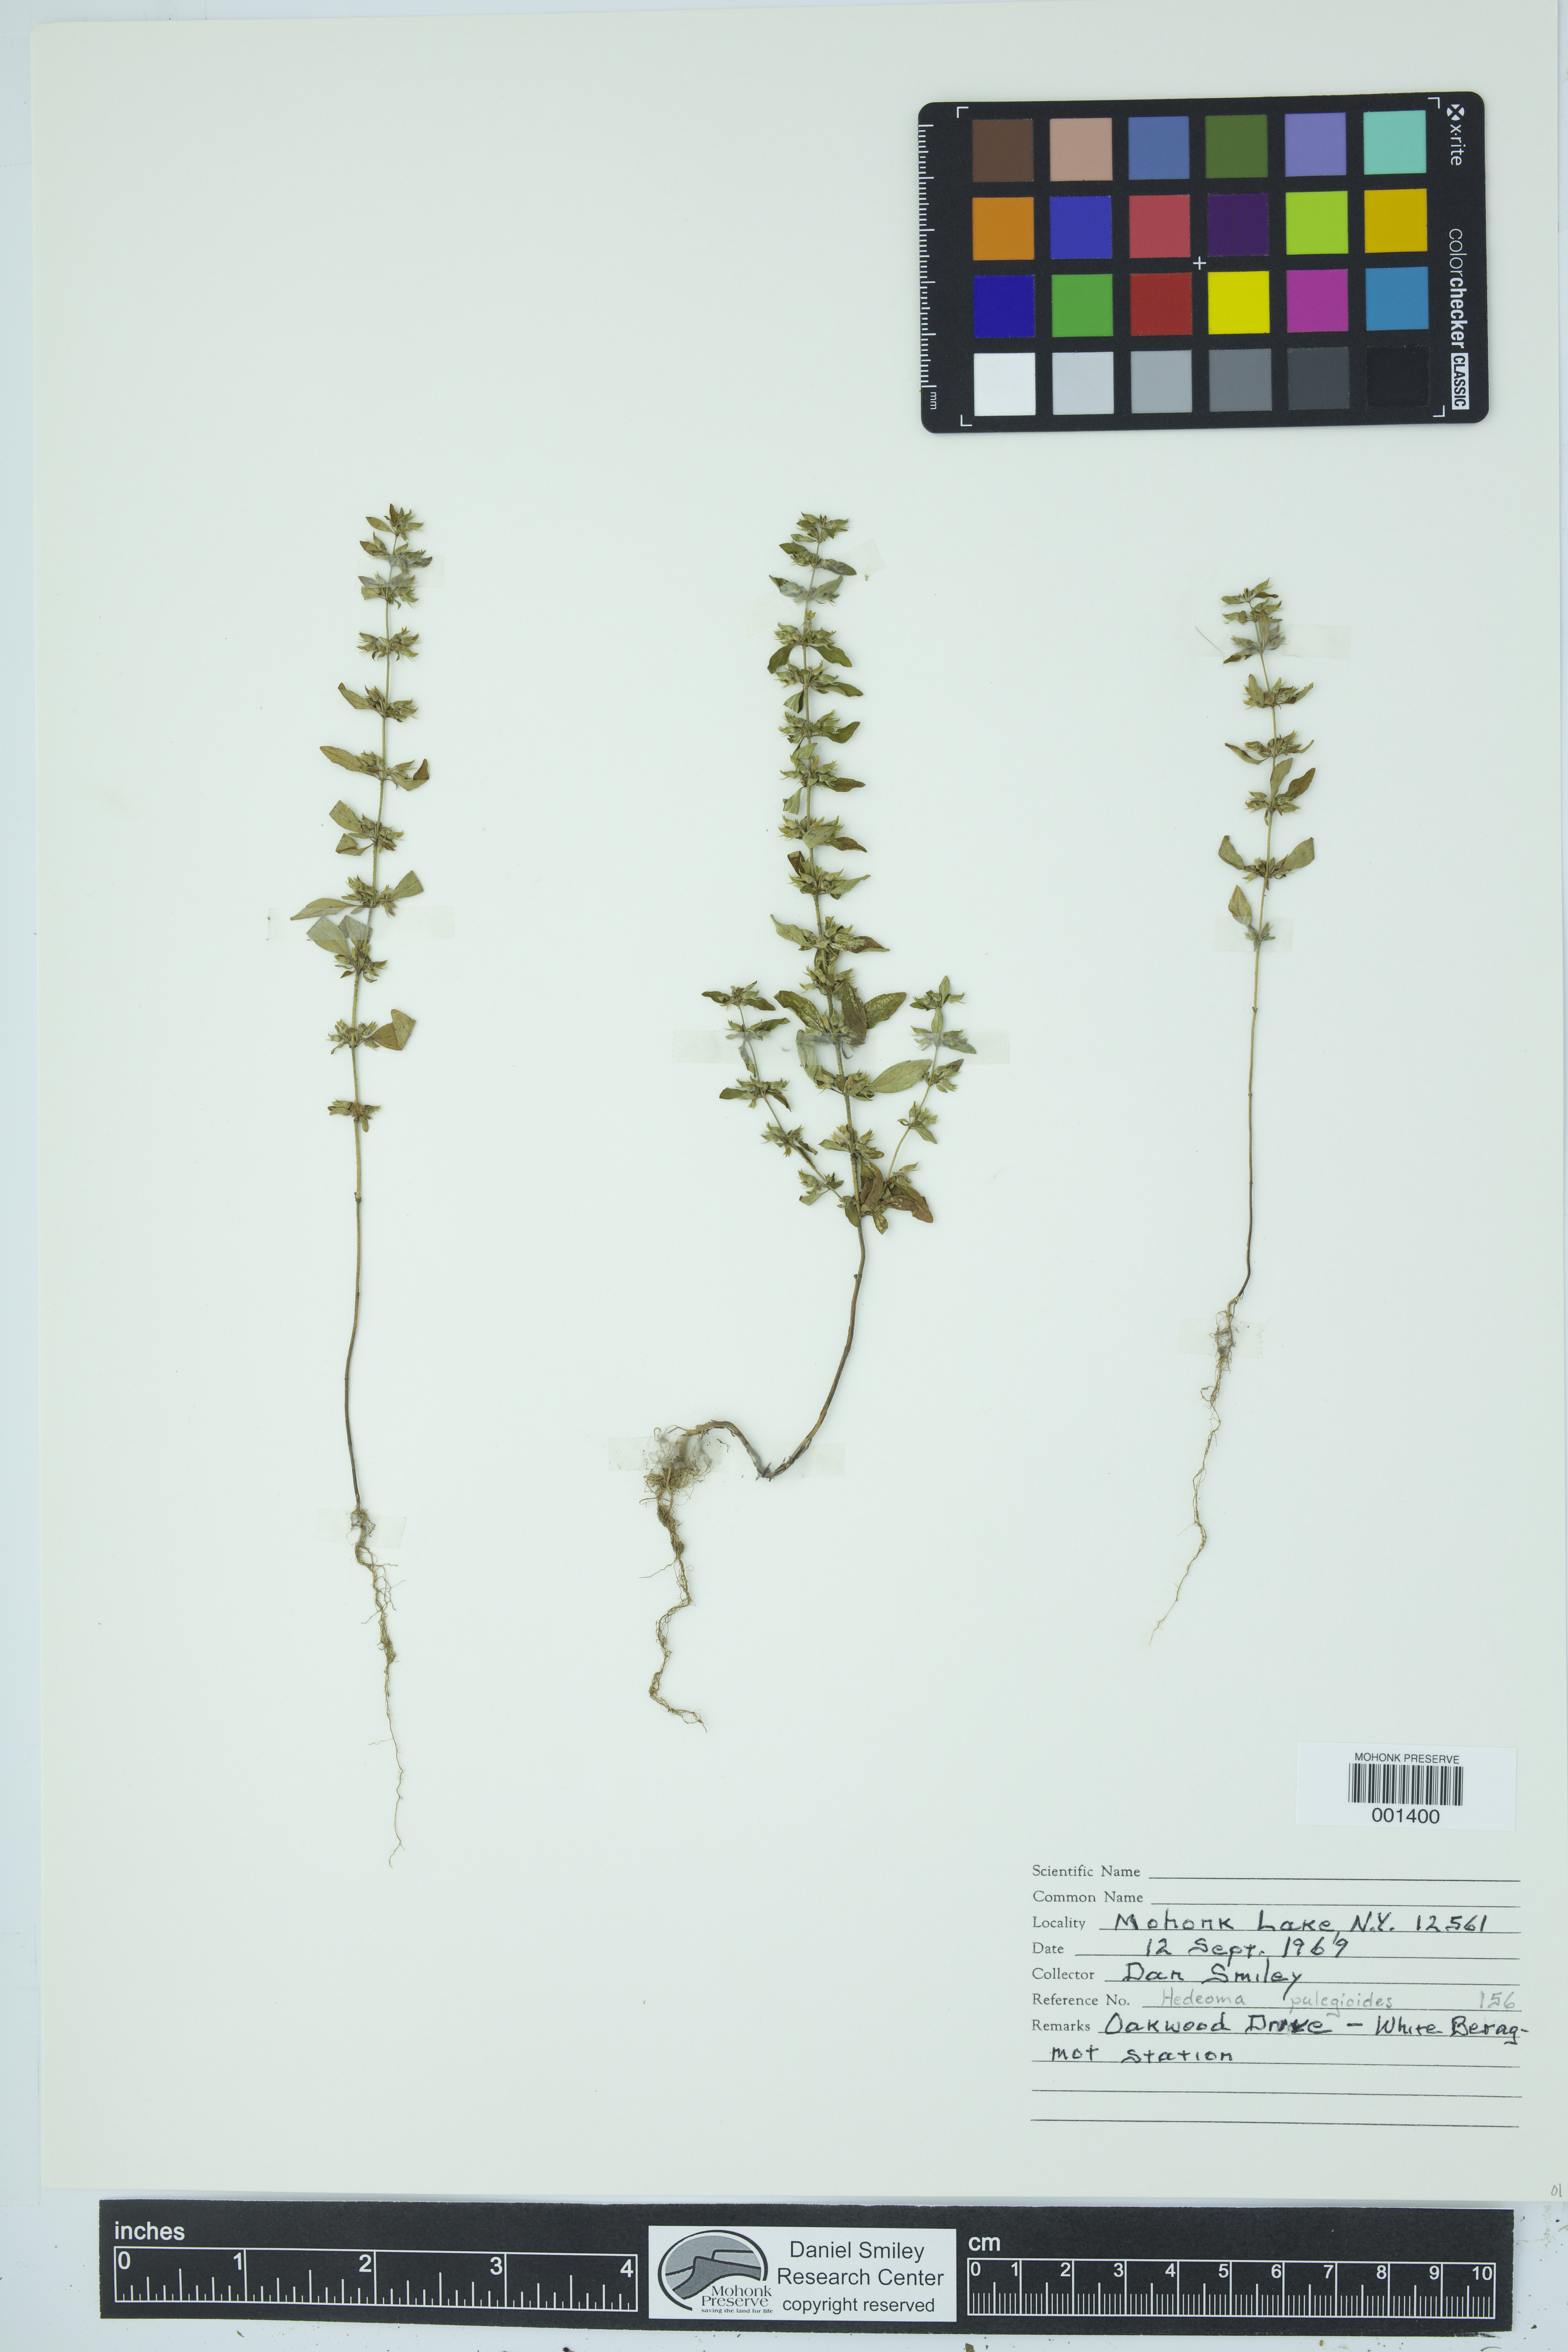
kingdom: Plantae
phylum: Tracheophyta
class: Magnoliopsida
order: Lamiales
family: Lamiaceae
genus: Hedeoma
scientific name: Hedeoma pulegioides
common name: American false pennyroyal
